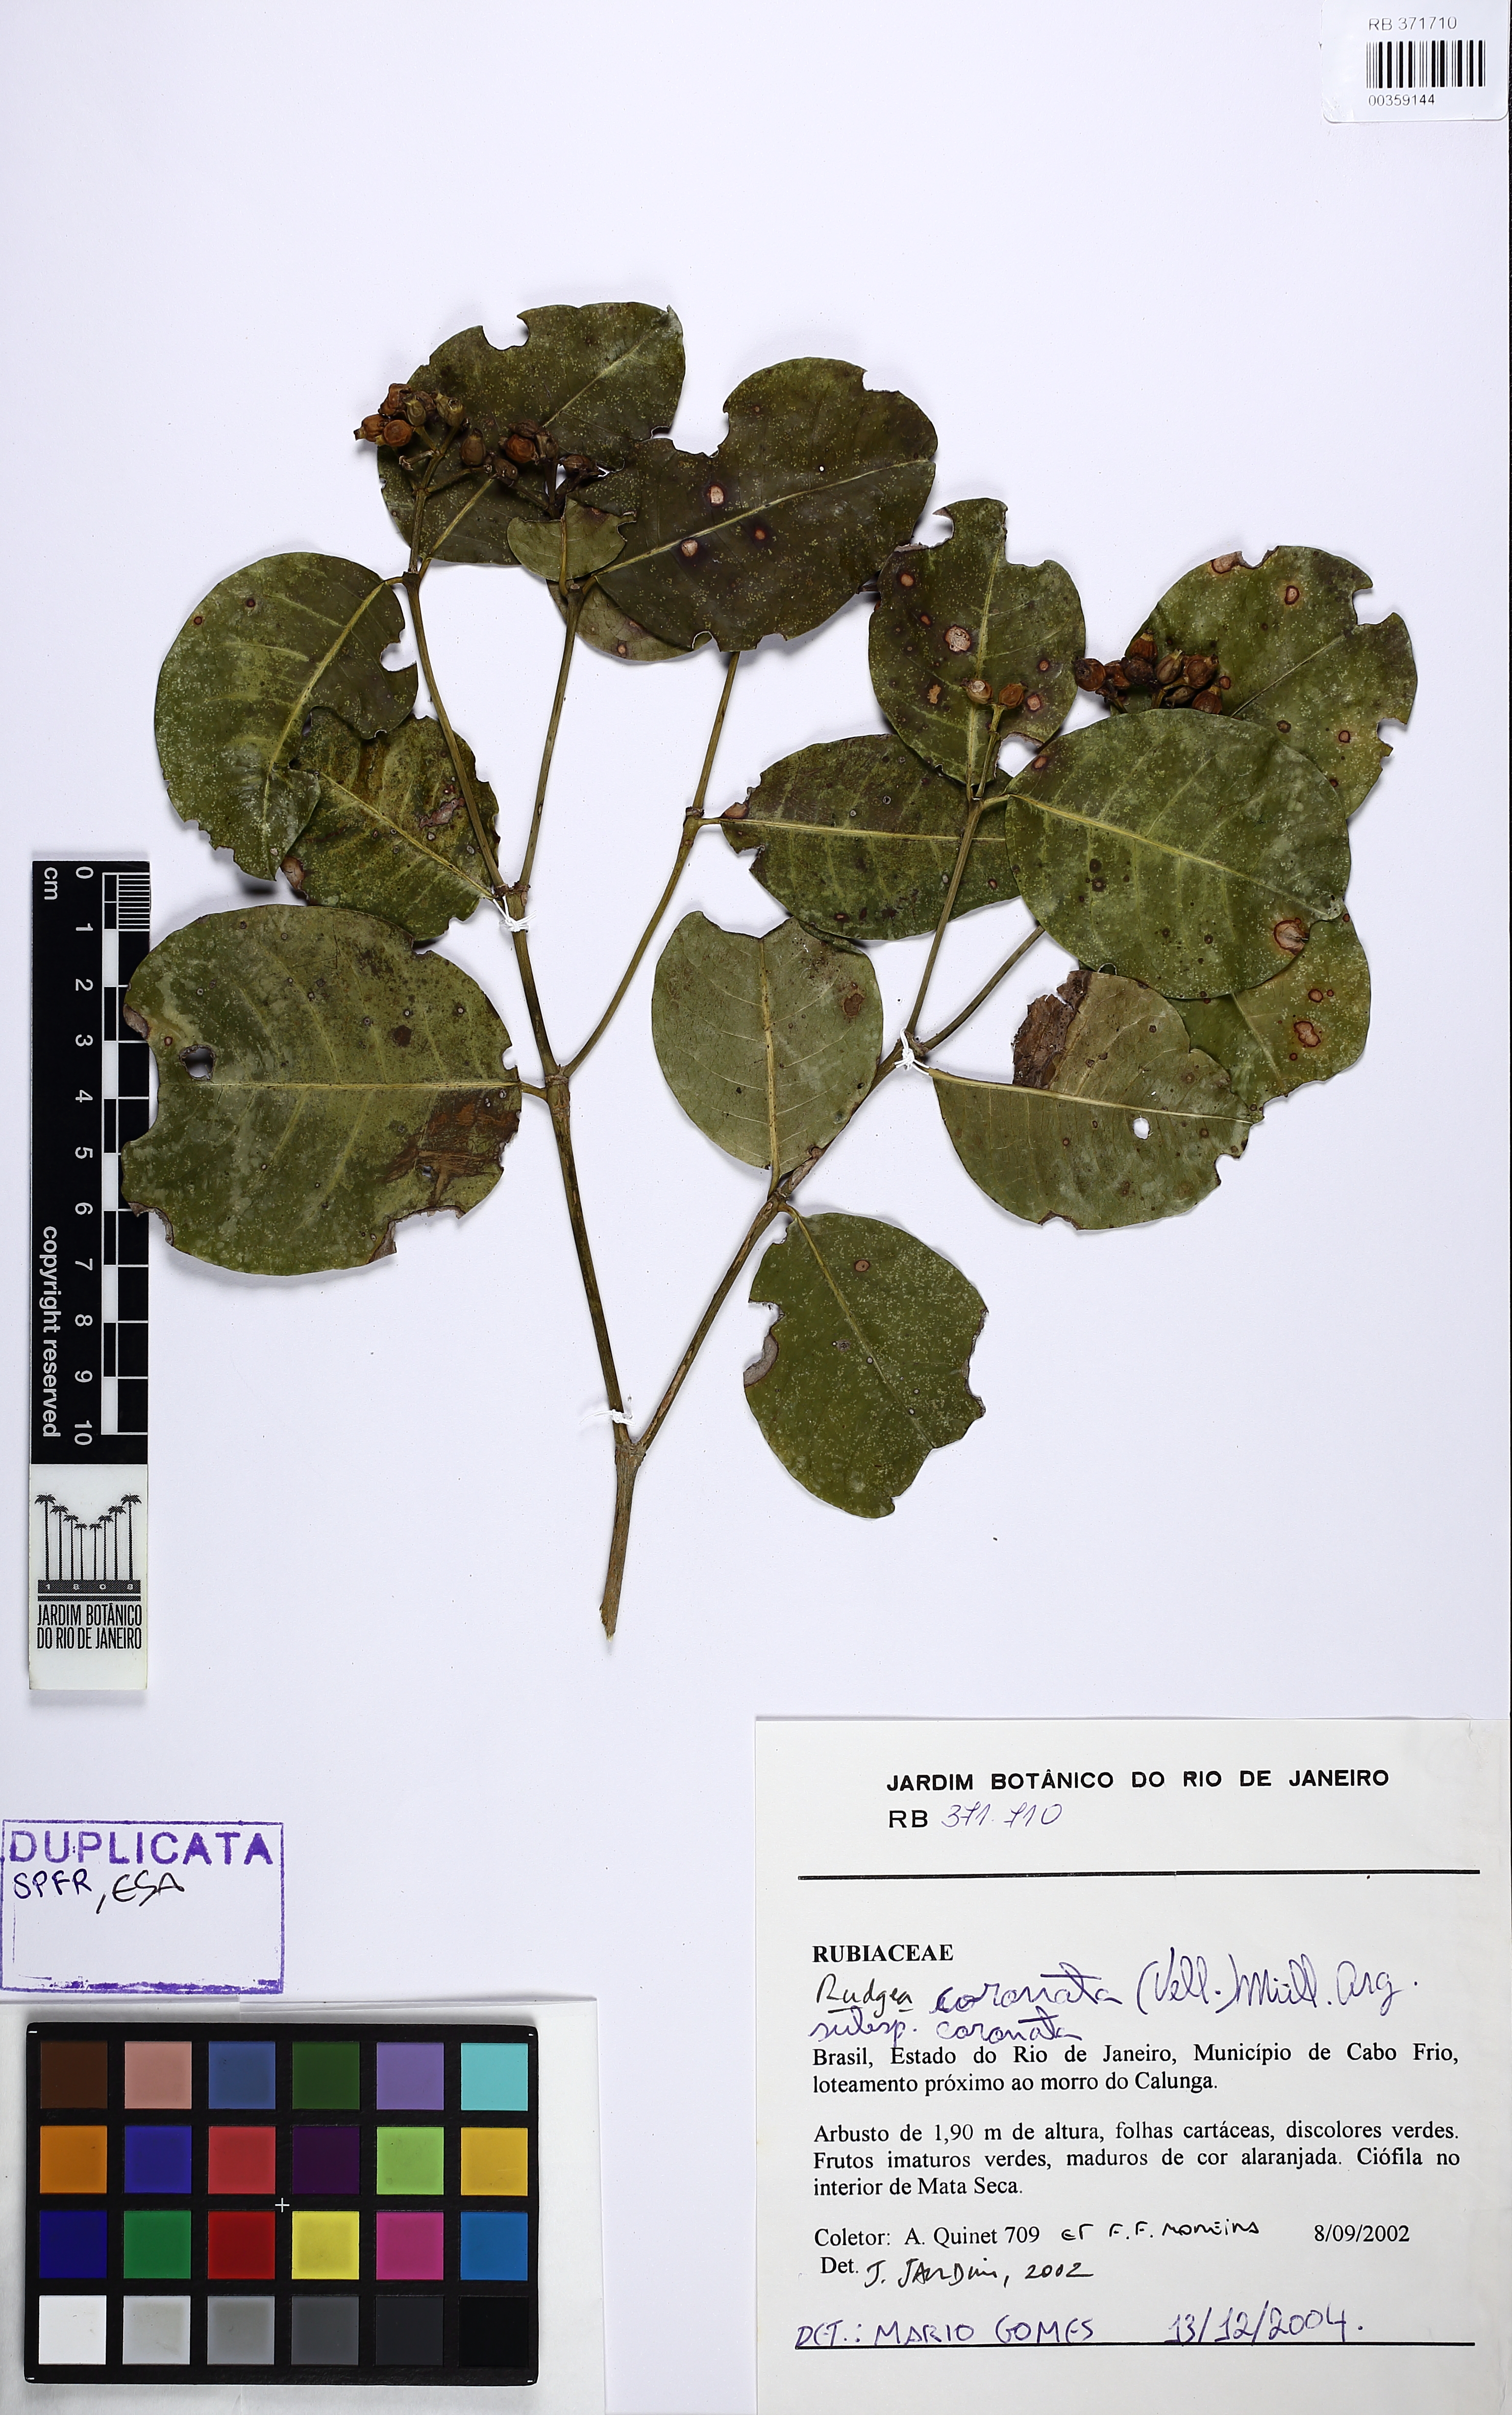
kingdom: Plantae
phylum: Tracheophyta
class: Magnoliopsida
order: Gentianales
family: Rubiaceae
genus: Rudgea
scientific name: Rudgea coronata
